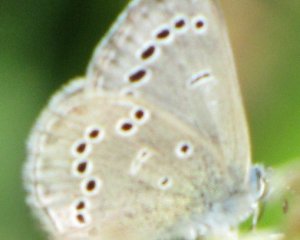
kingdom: Animalia
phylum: Arthropoda
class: Insecta
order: Lepidoptera
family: Lycaenidae
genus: Glaucopsyche
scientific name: Glaucopsyche lygdamus
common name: Silvery Blue
